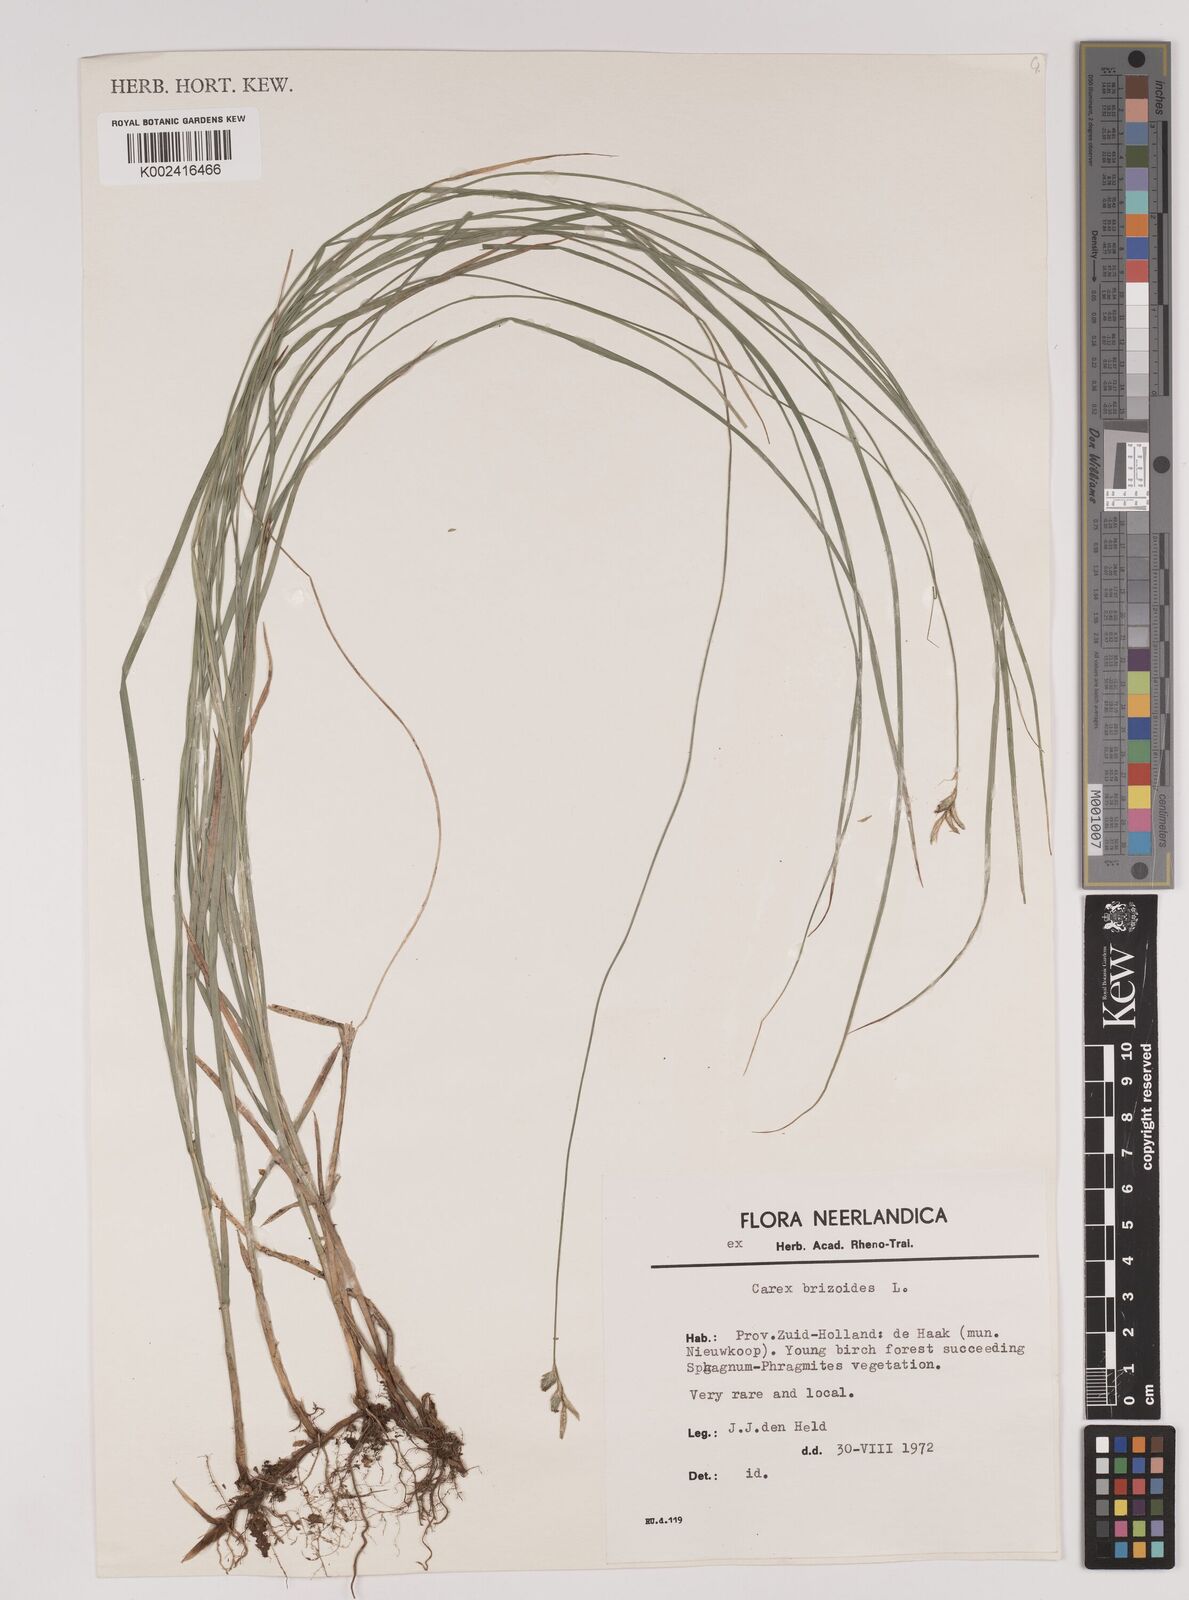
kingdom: Plantae
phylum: Tracheophyta
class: Liliopsida
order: Poales
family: Cyperaceae
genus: Carex
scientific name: Carex brizoides
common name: Quaking-grass sedge
